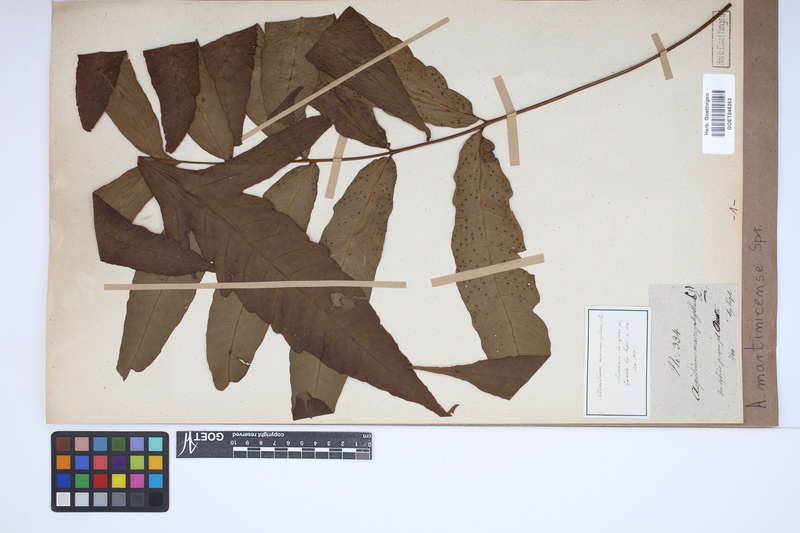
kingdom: Plantae
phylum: Tracheophyta
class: Polypodiopsida
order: Polypodiales
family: Tectariaceae
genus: Tectaria
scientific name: Tectaria incisa
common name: Incised halberd fern
